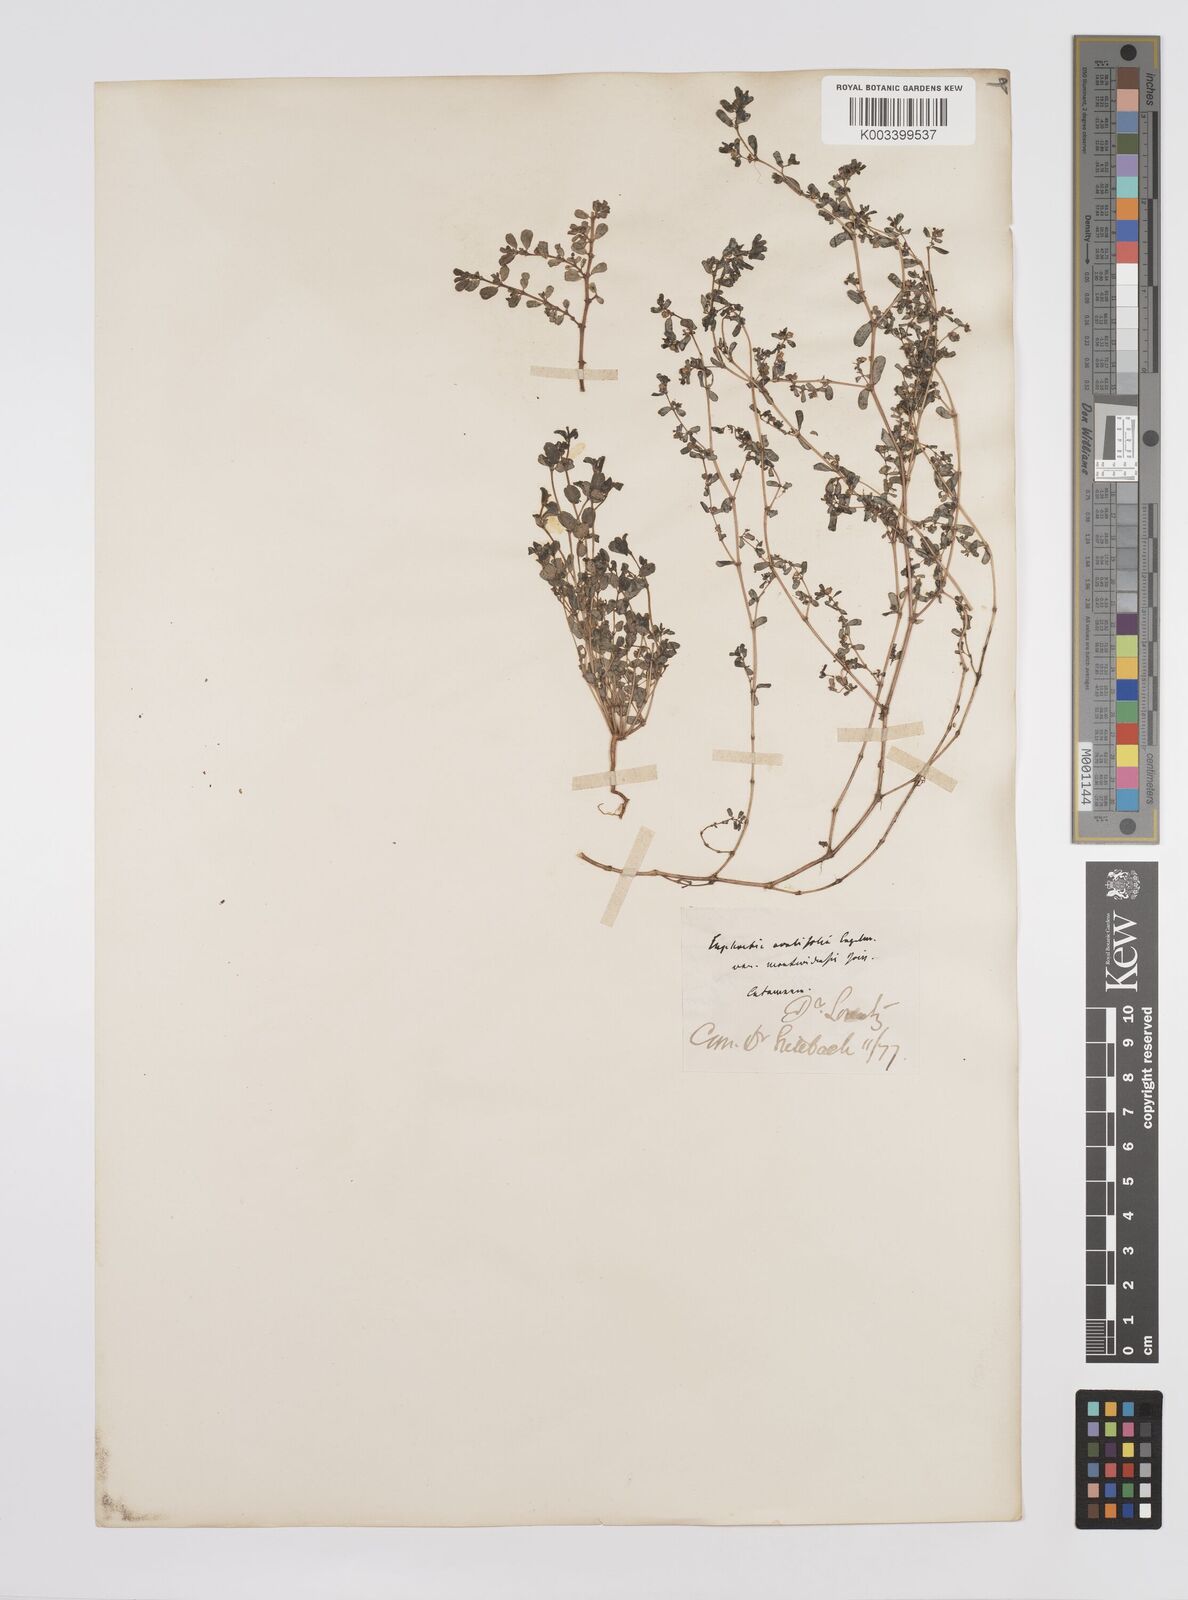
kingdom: Plantae
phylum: Tracheophyta
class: Magnoliopsida
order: Malpighiales
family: Euphorbiaceae
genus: Euphorbia
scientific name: Euphorbia
